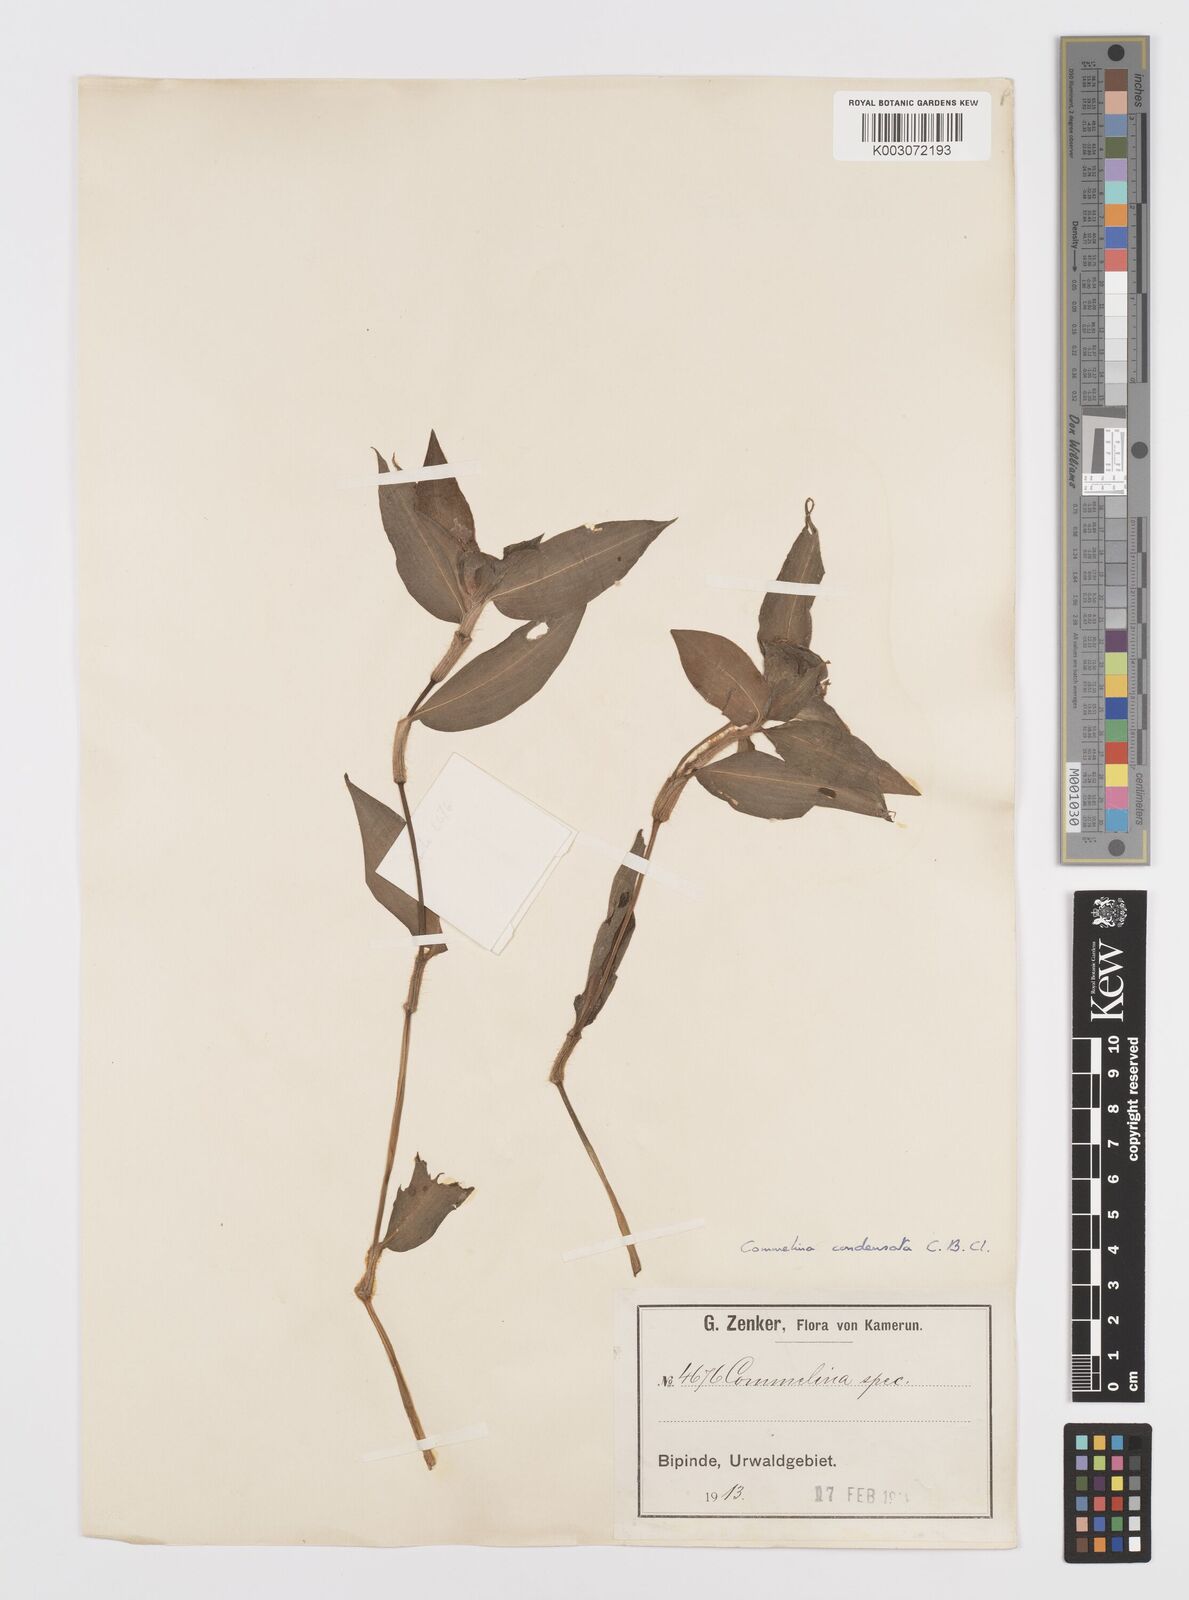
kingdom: Plantae
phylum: Tracheophyta
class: Liliopsida
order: Commelinales
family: Commelinaceae
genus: Commelina
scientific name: Commelina congesta
